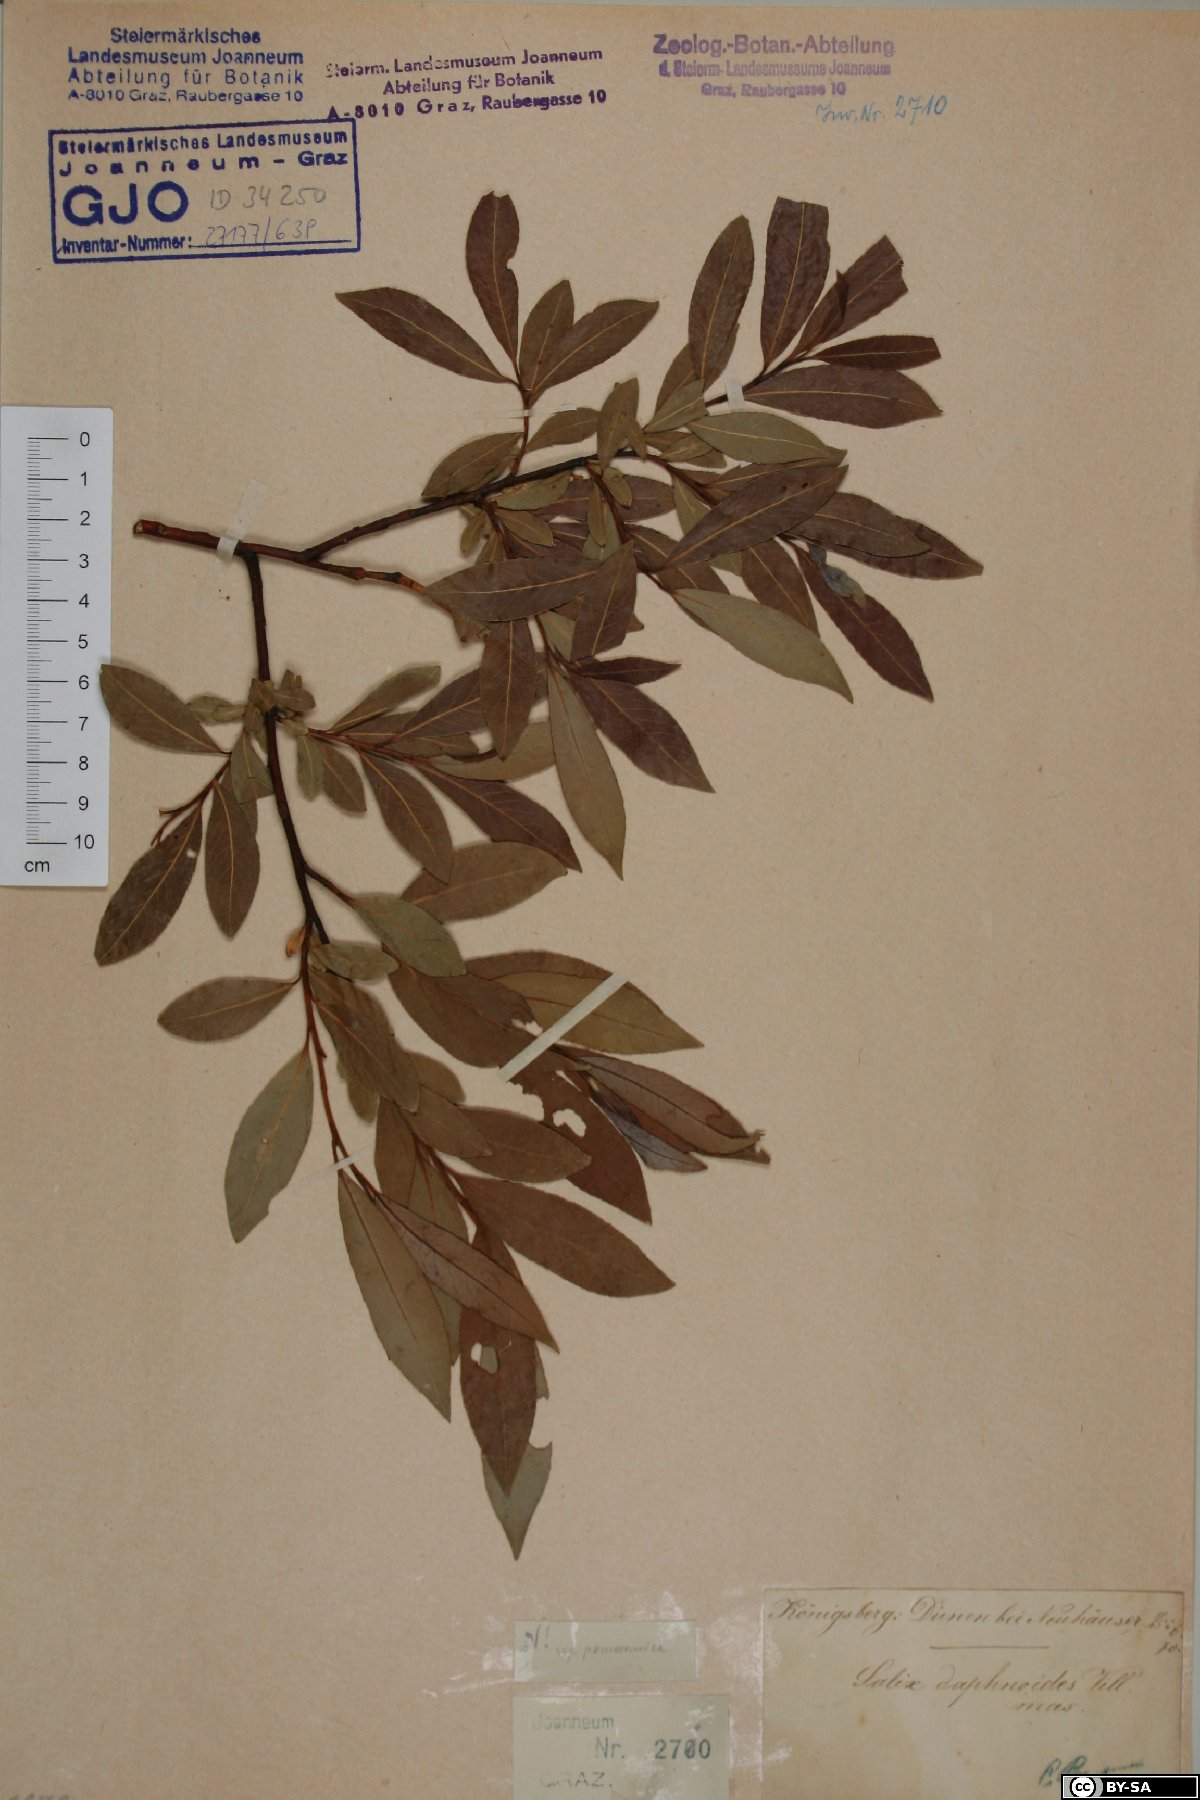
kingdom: Plantae
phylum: Tracheophyta
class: Magnoliopsida
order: Malpighiales
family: Salicaceae
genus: Salix
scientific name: Salix daphnoides
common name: European violet-willow
